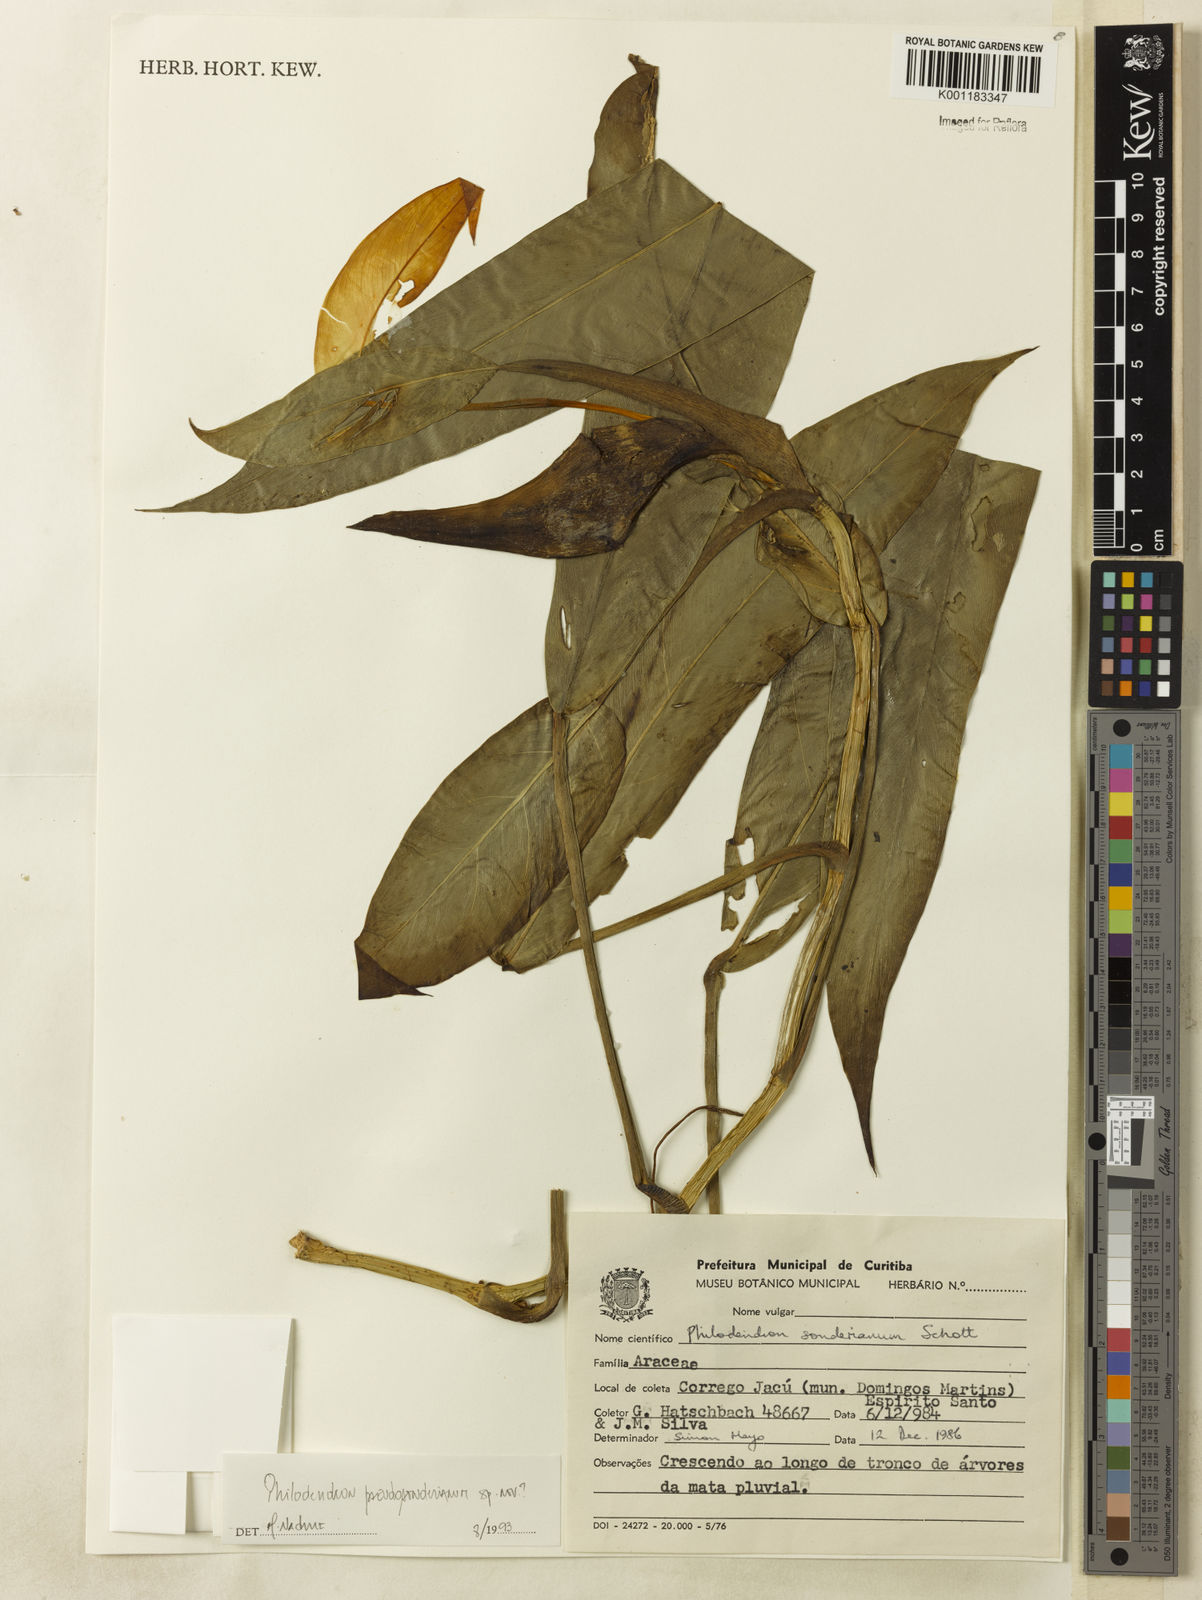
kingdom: Plantae
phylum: Tracheophyta
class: Liliopsida
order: Alismatales
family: Araceae
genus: Philodendron
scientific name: Philodendron
